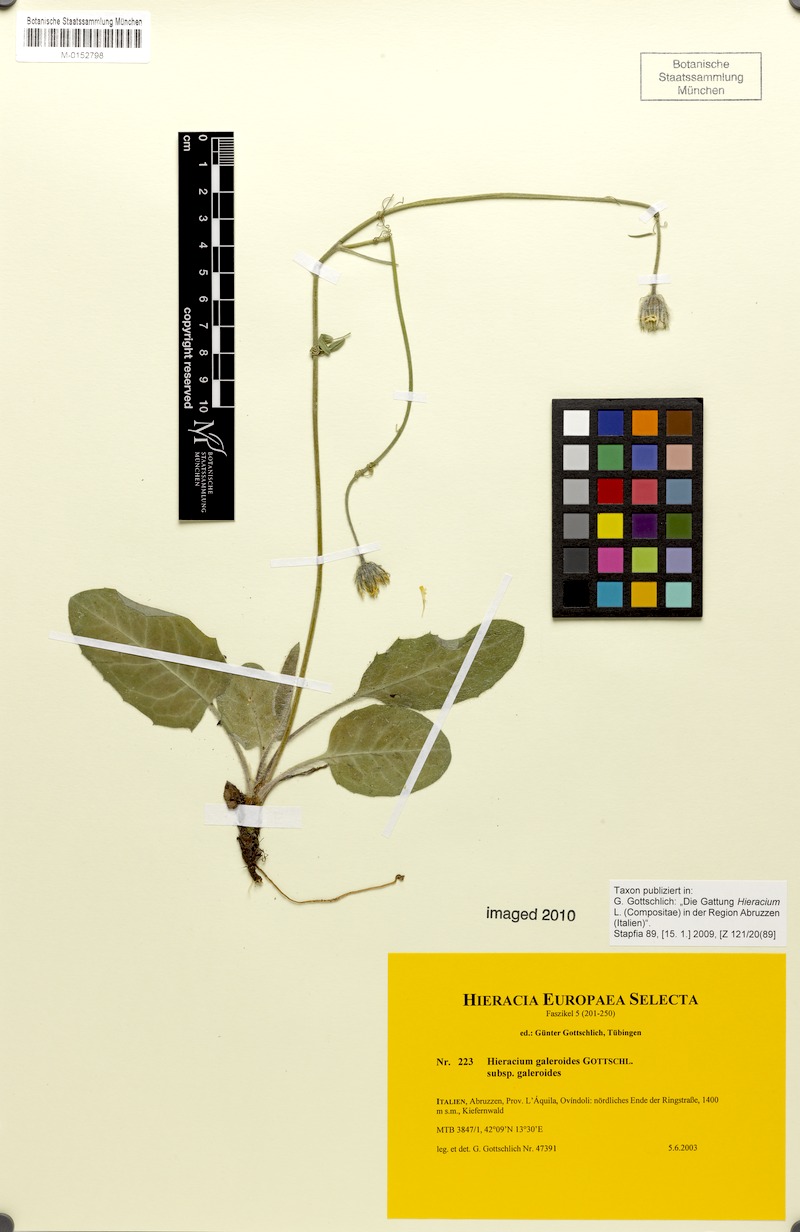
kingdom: Plantae
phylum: Tracheophyta
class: Magnoliopsida
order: Asterales
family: Asteraceae
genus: Hieracium
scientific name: Hieracium galeroides
